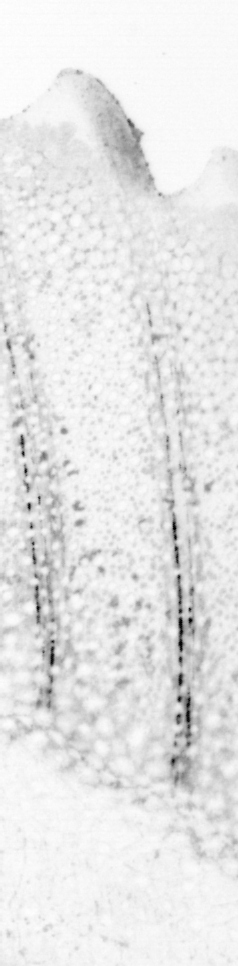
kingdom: Animalia
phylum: Chordata
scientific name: Chordata
